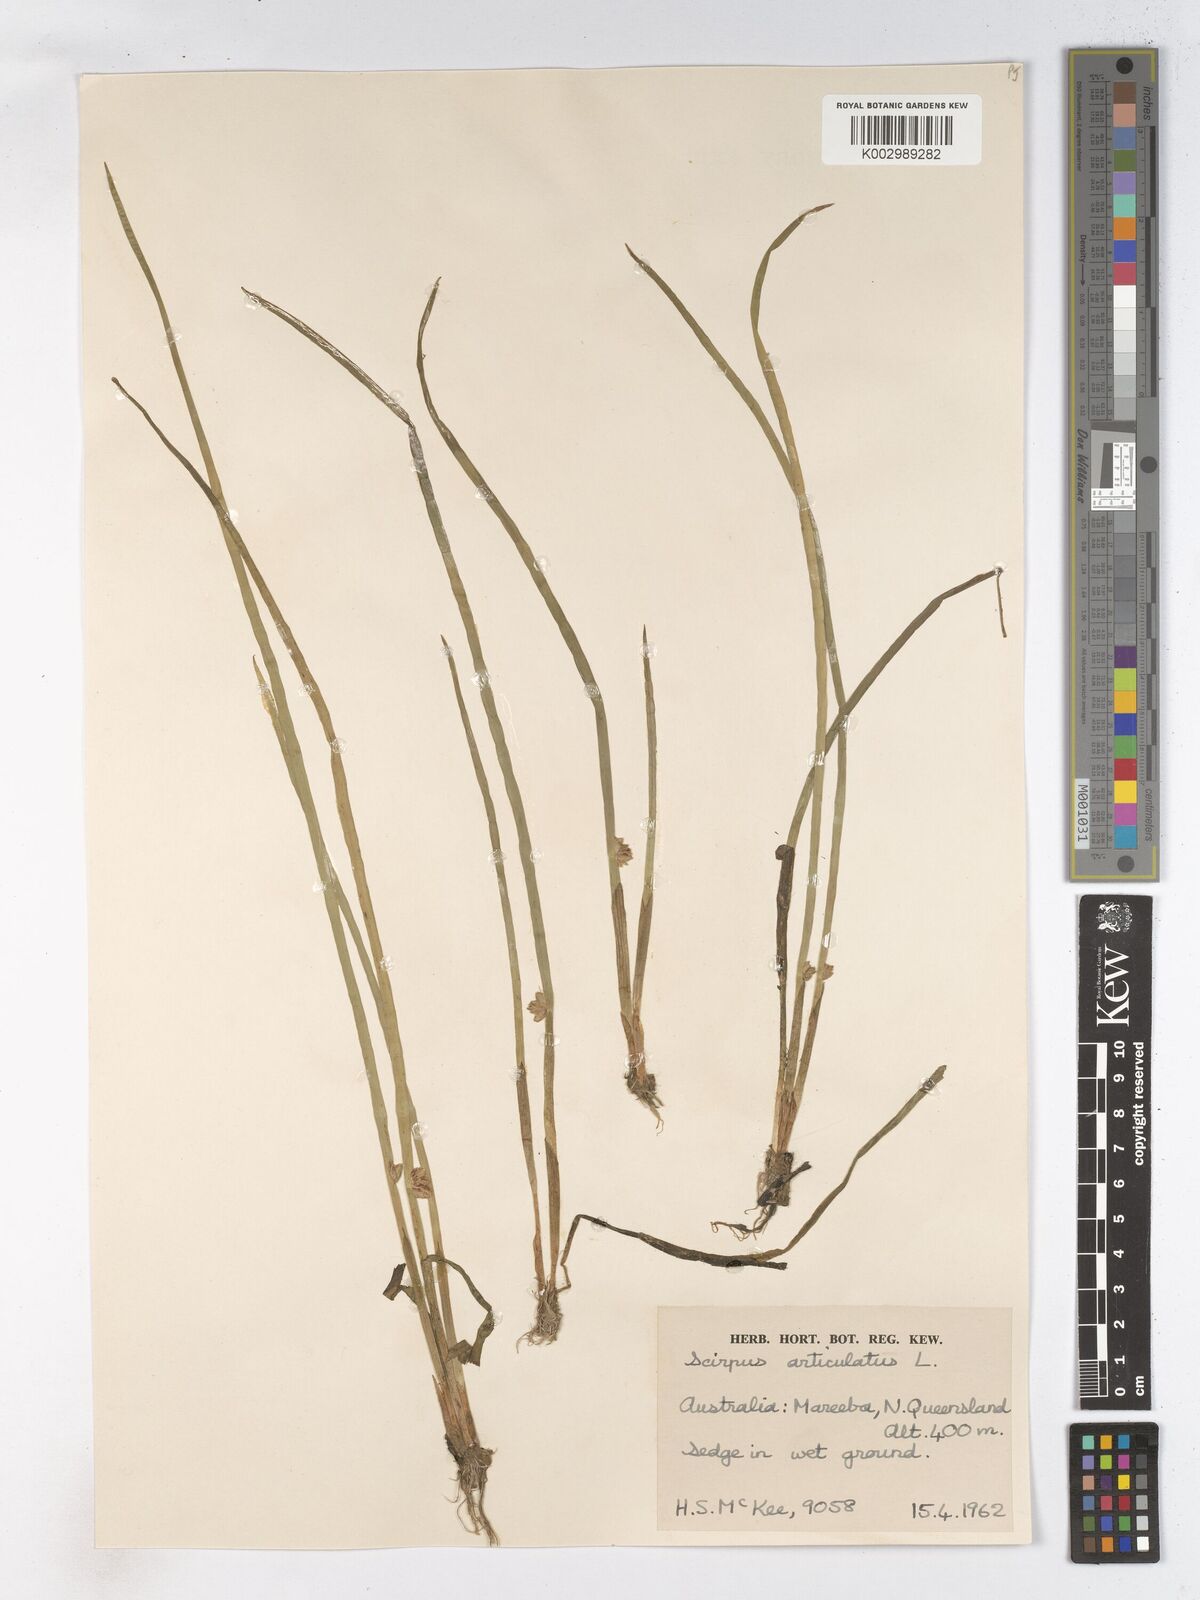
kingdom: Plantae
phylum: Tracheophyta
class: Liliopsida
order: Poales
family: Cyperaceae
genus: Schoenoplectiella
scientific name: Schoenoplectiella articulata
